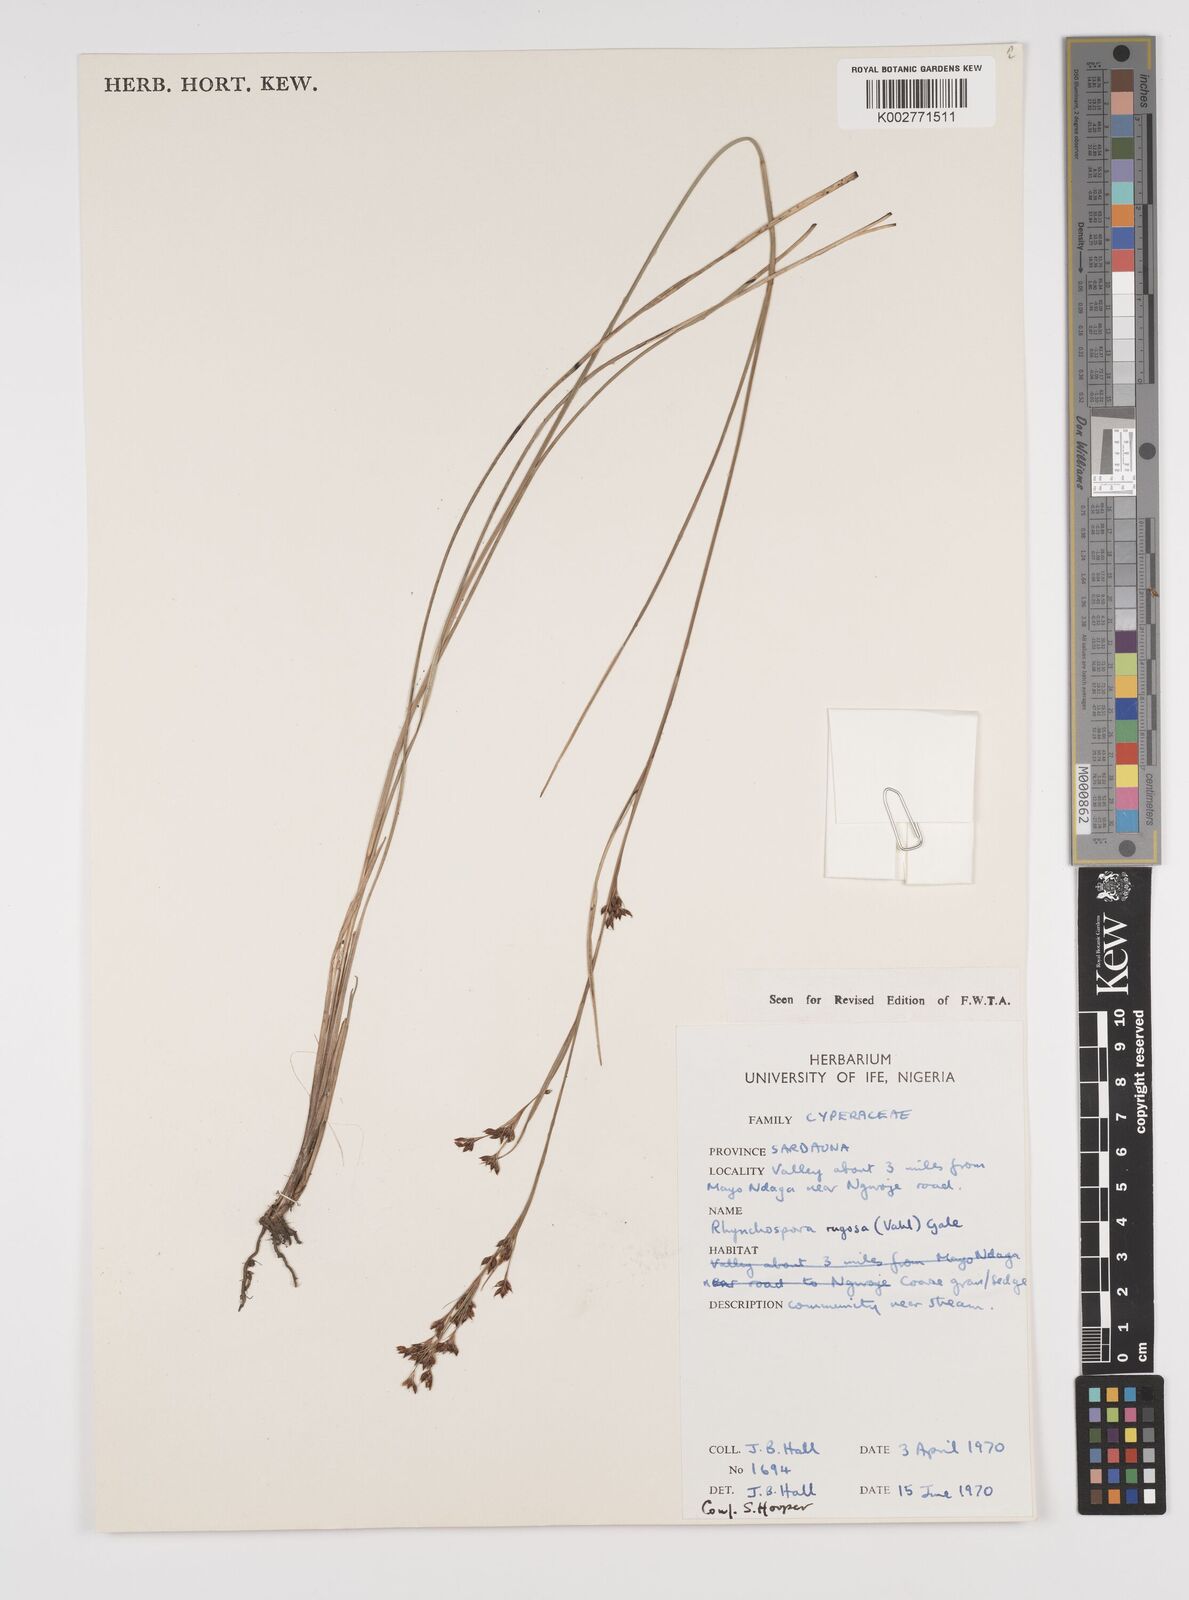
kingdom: Plantae
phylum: Tracheophyta
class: Liliopsida
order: Poales
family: Cyperaceae
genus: Rhynchospora
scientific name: Rhynchospora rugosa
